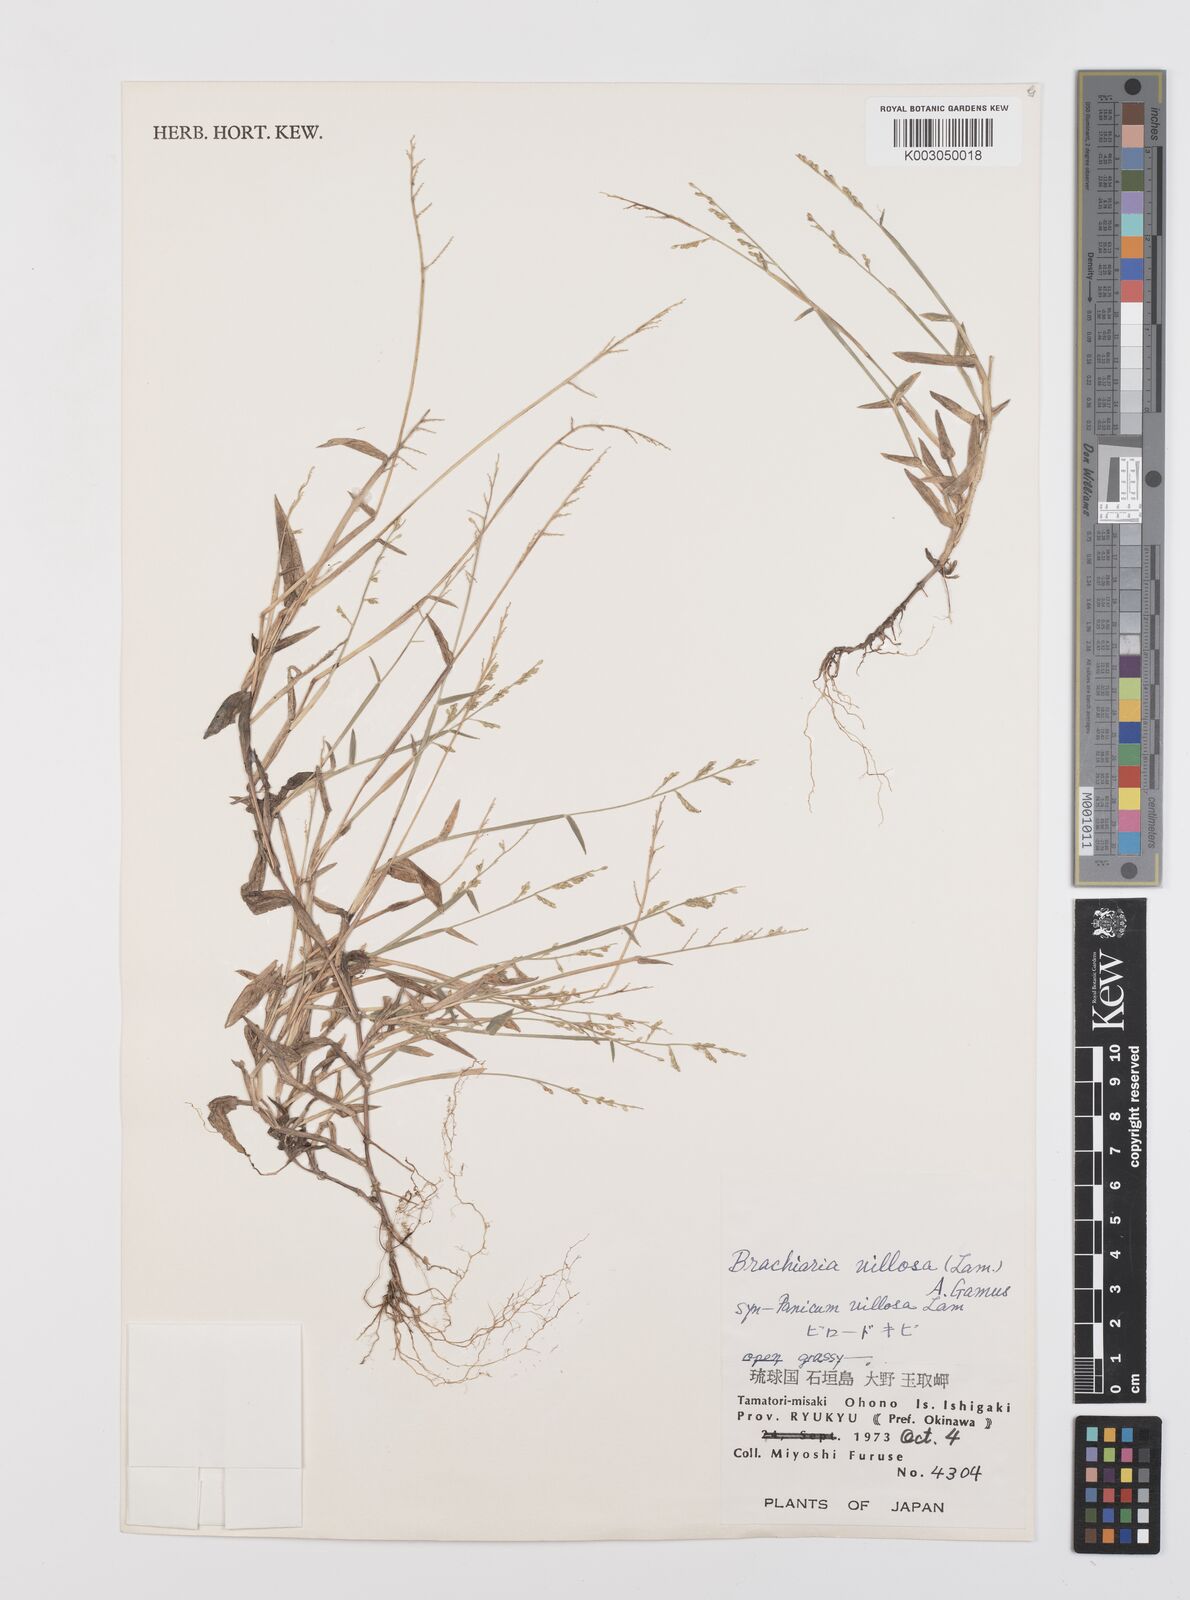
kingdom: Plantae
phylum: Tracheophyta
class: Liliopsida
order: Poales
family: Poaceae
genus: Urochloa
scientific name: Urochloa villosa
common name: Hairy signalgrass
